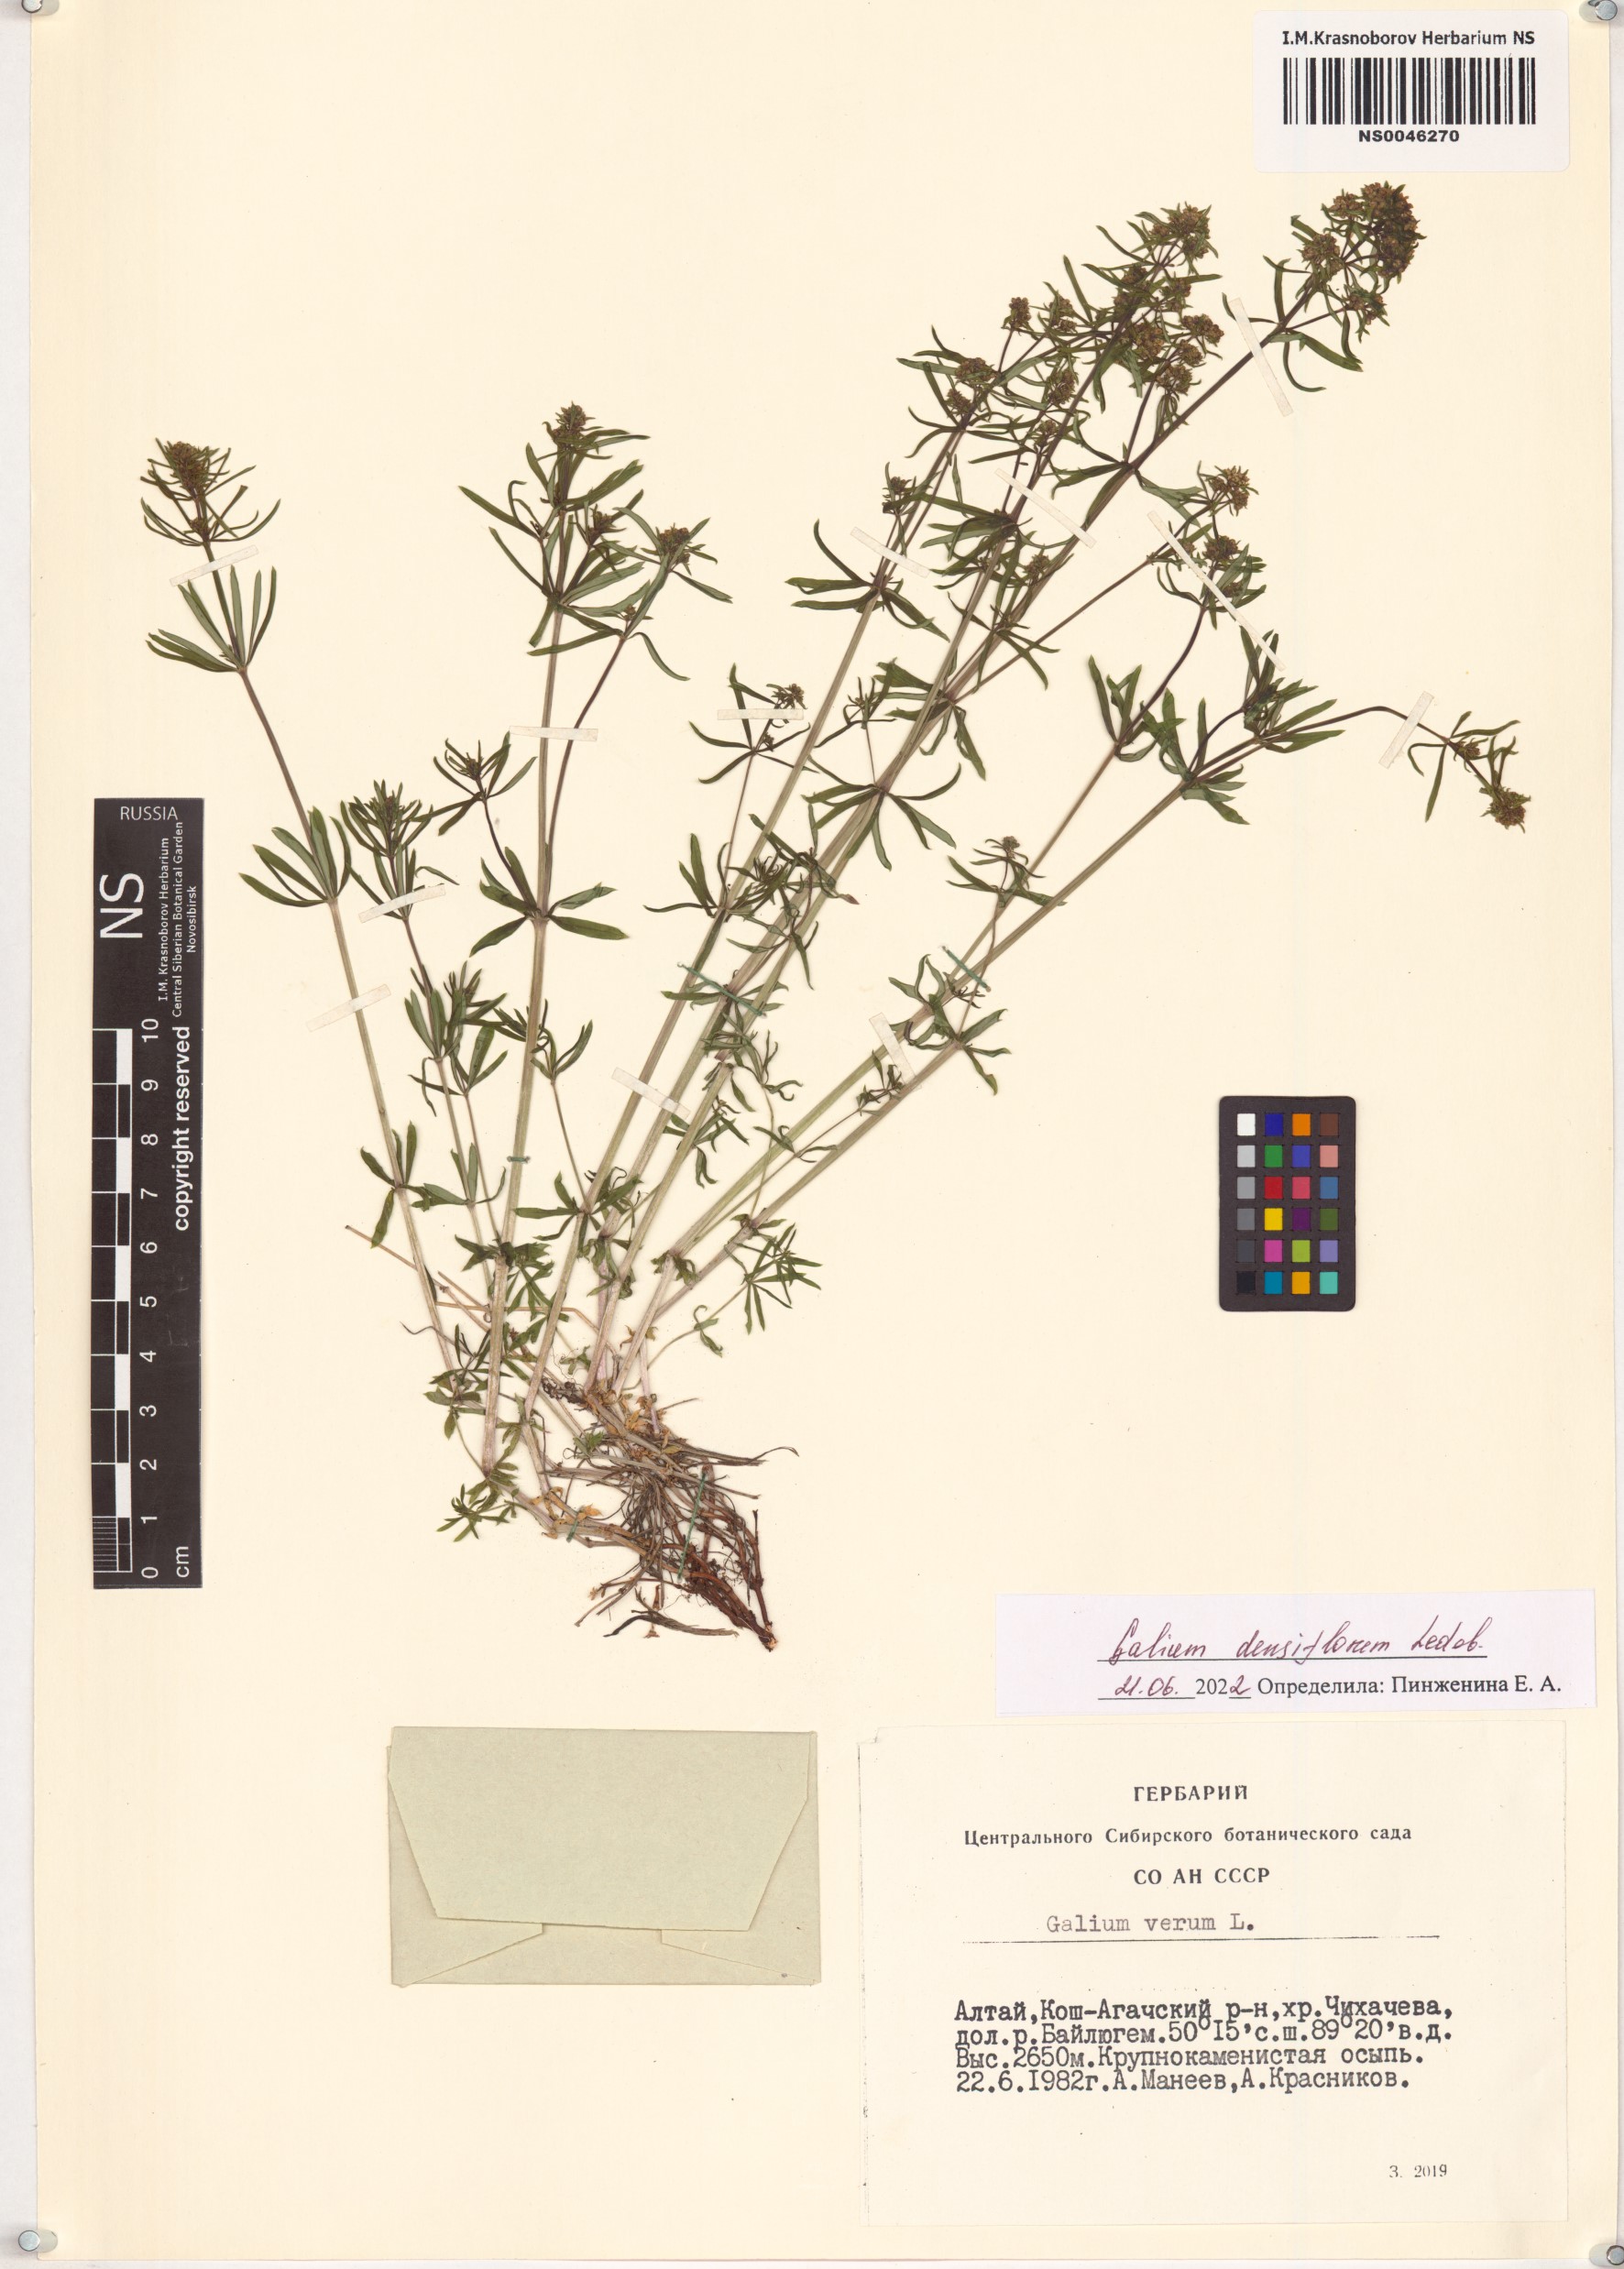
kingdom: Plantae
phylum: Tracheophyta
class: Magnoliopsida
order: Gentianales
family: Rubiaceae
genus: Galium
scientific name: Galium densiflorum
